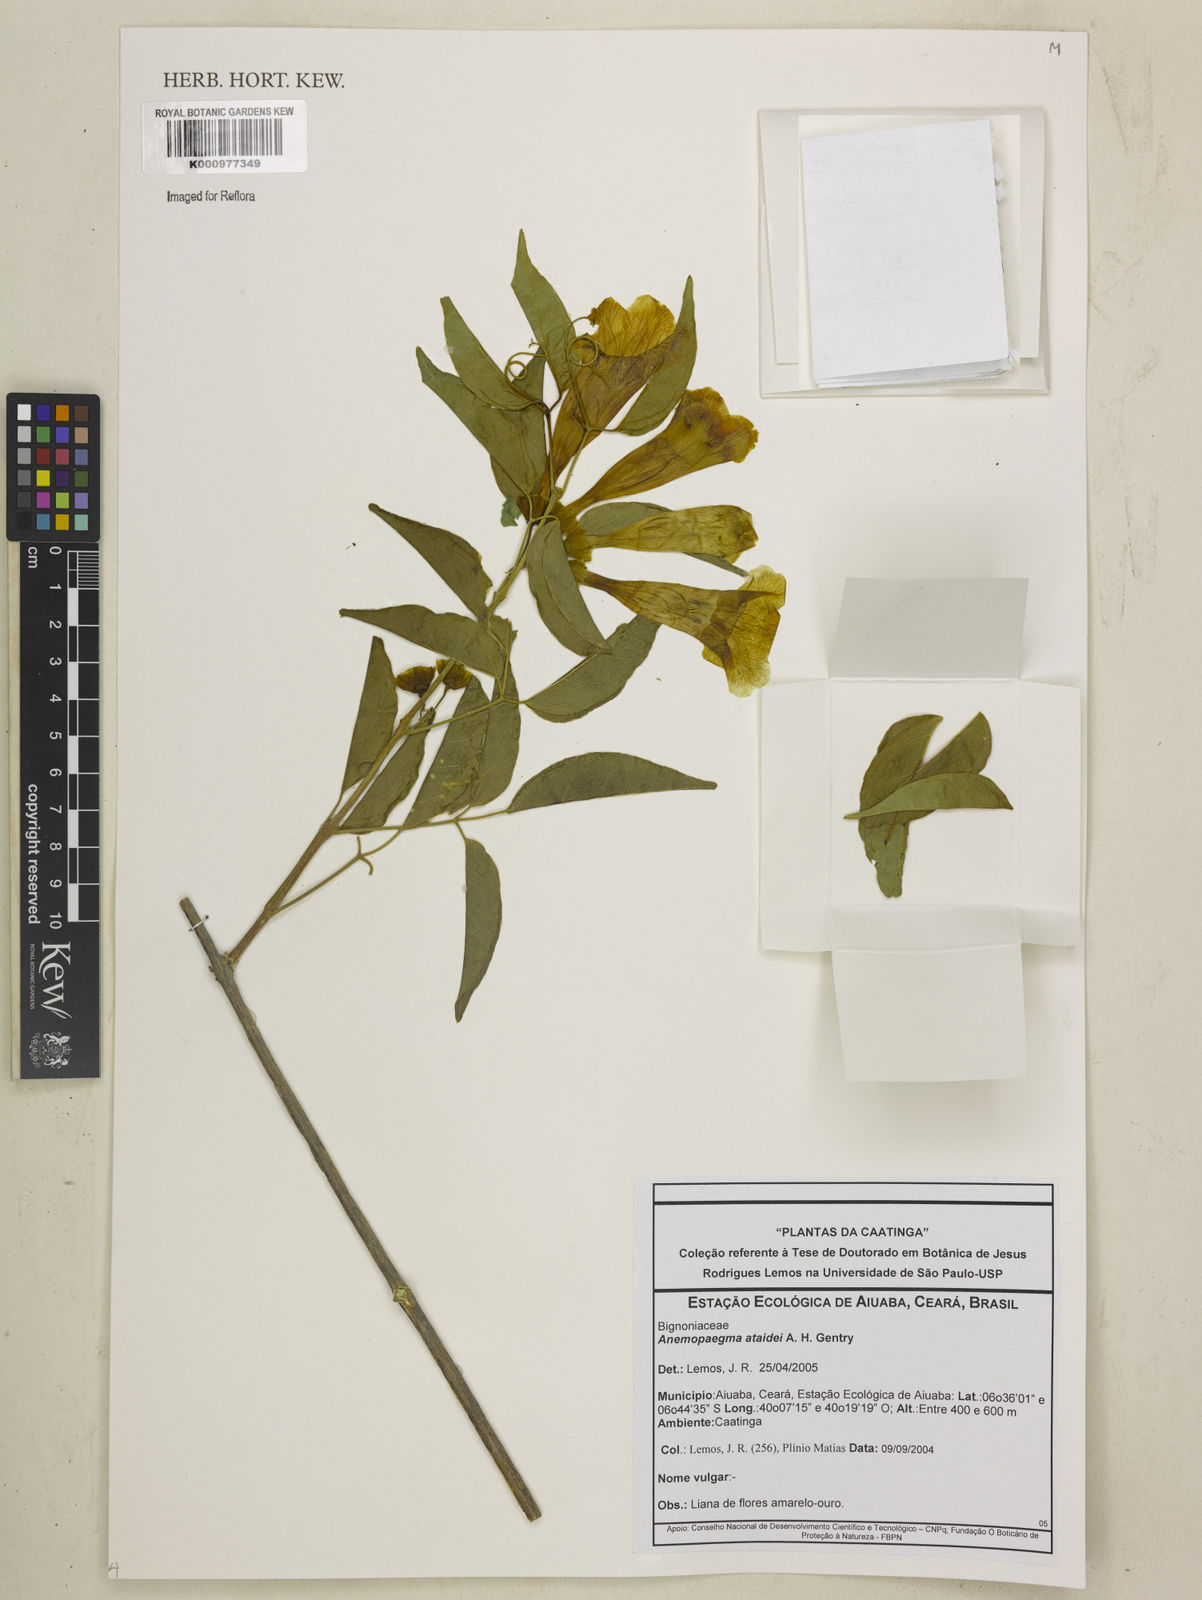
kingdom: Plantae
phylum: Tracheophyta
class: Magnoliopsida
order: Lamiales
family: Bignoniaceae
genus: Anemopaegma
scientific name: Anemopaegma gracile
